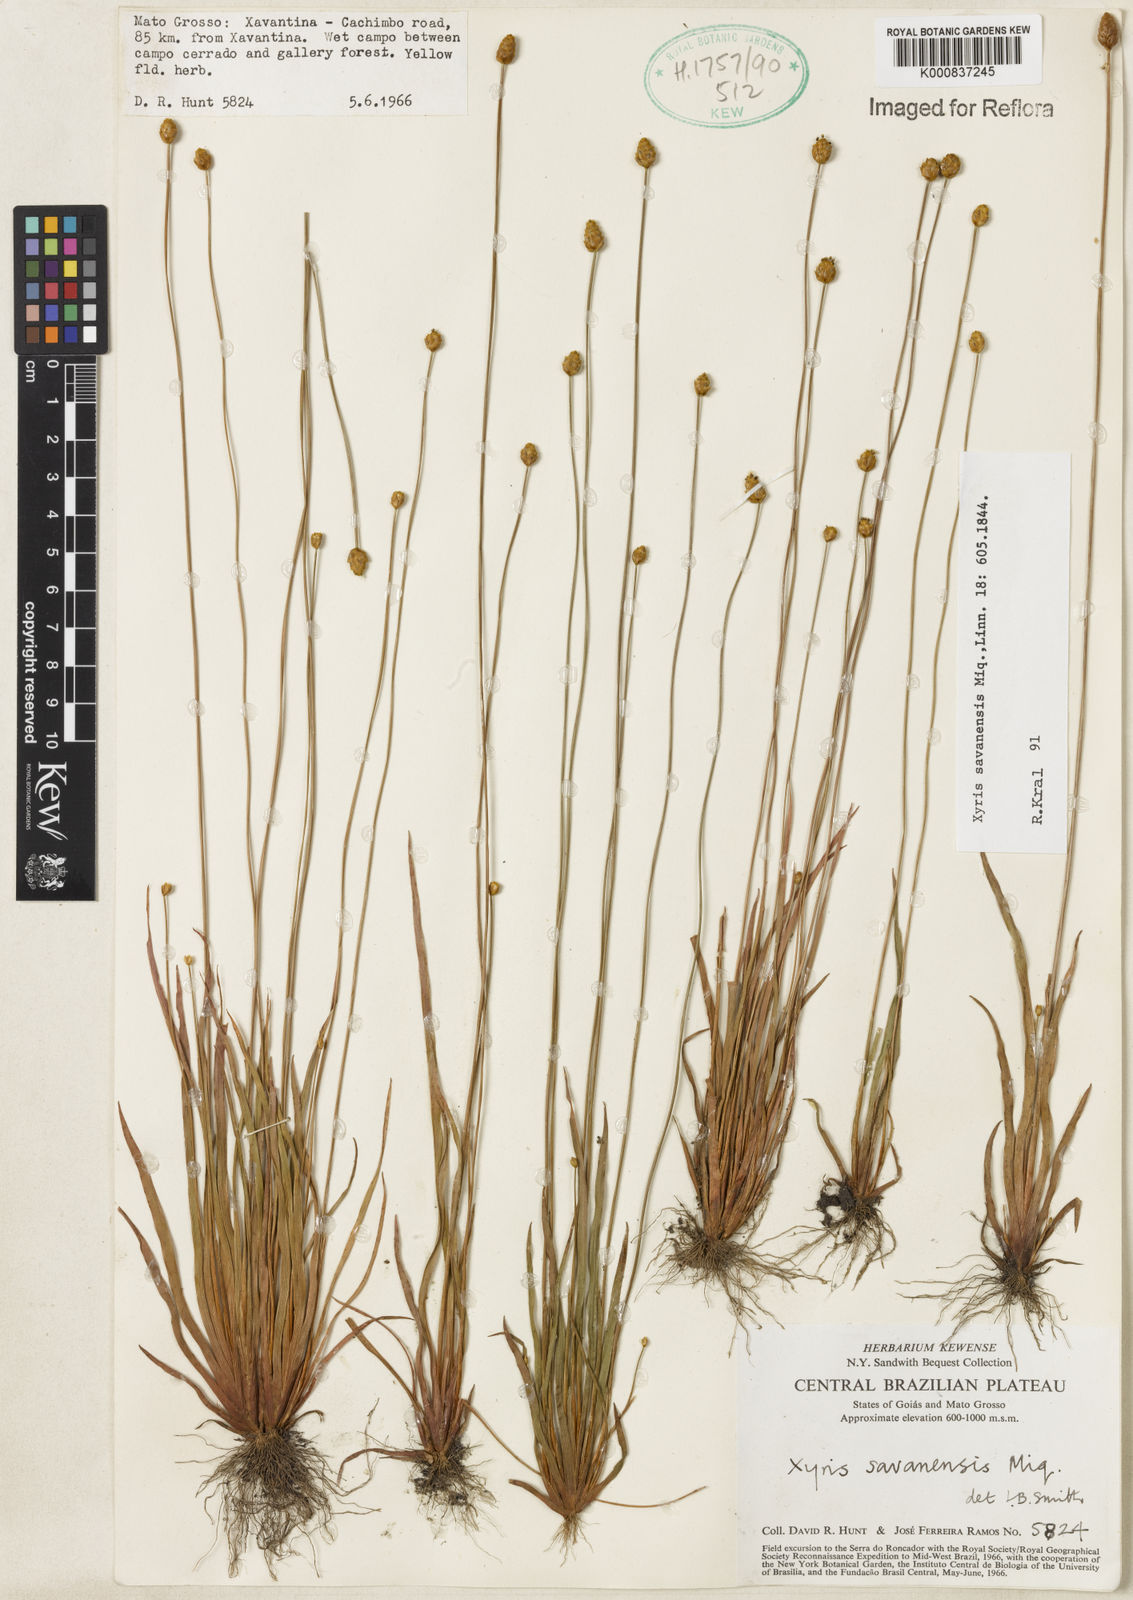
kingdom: Plantae
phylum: Tracheophyta
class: Liliopsida
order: Poales
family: Xyridaceae
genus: Xyris
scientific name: Xyris savanensis
